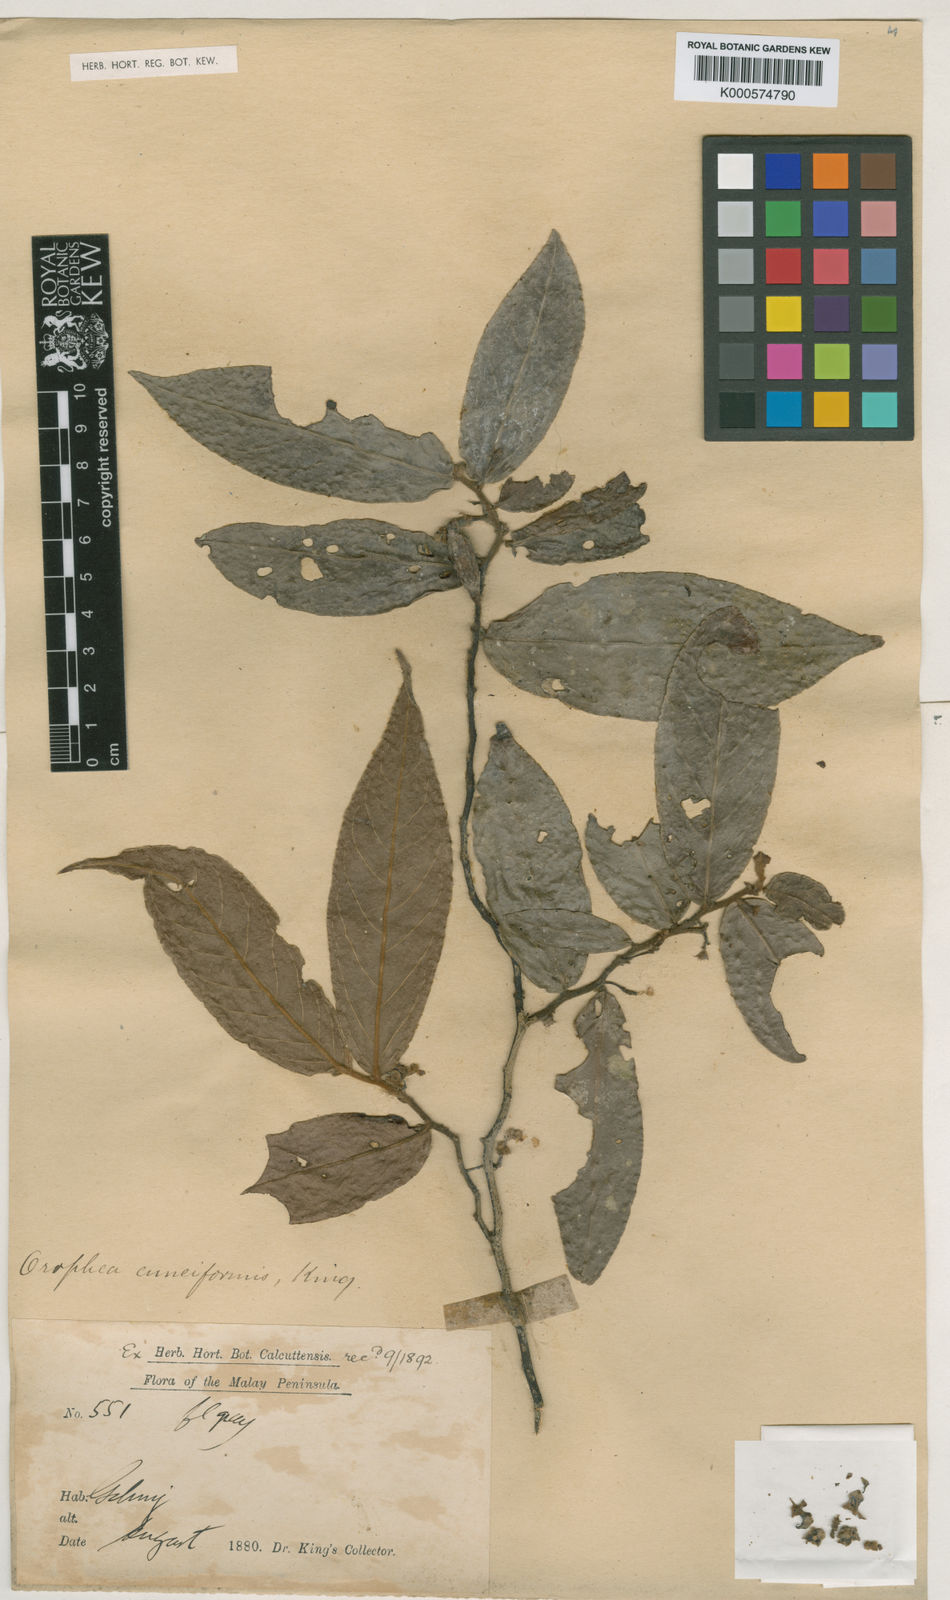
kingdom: Plantae
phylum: Tracheophyta
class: Magnoliopsida
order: Magnoliales
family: Annonaceae
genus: Orophea
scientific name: Orophea cuneiformis
